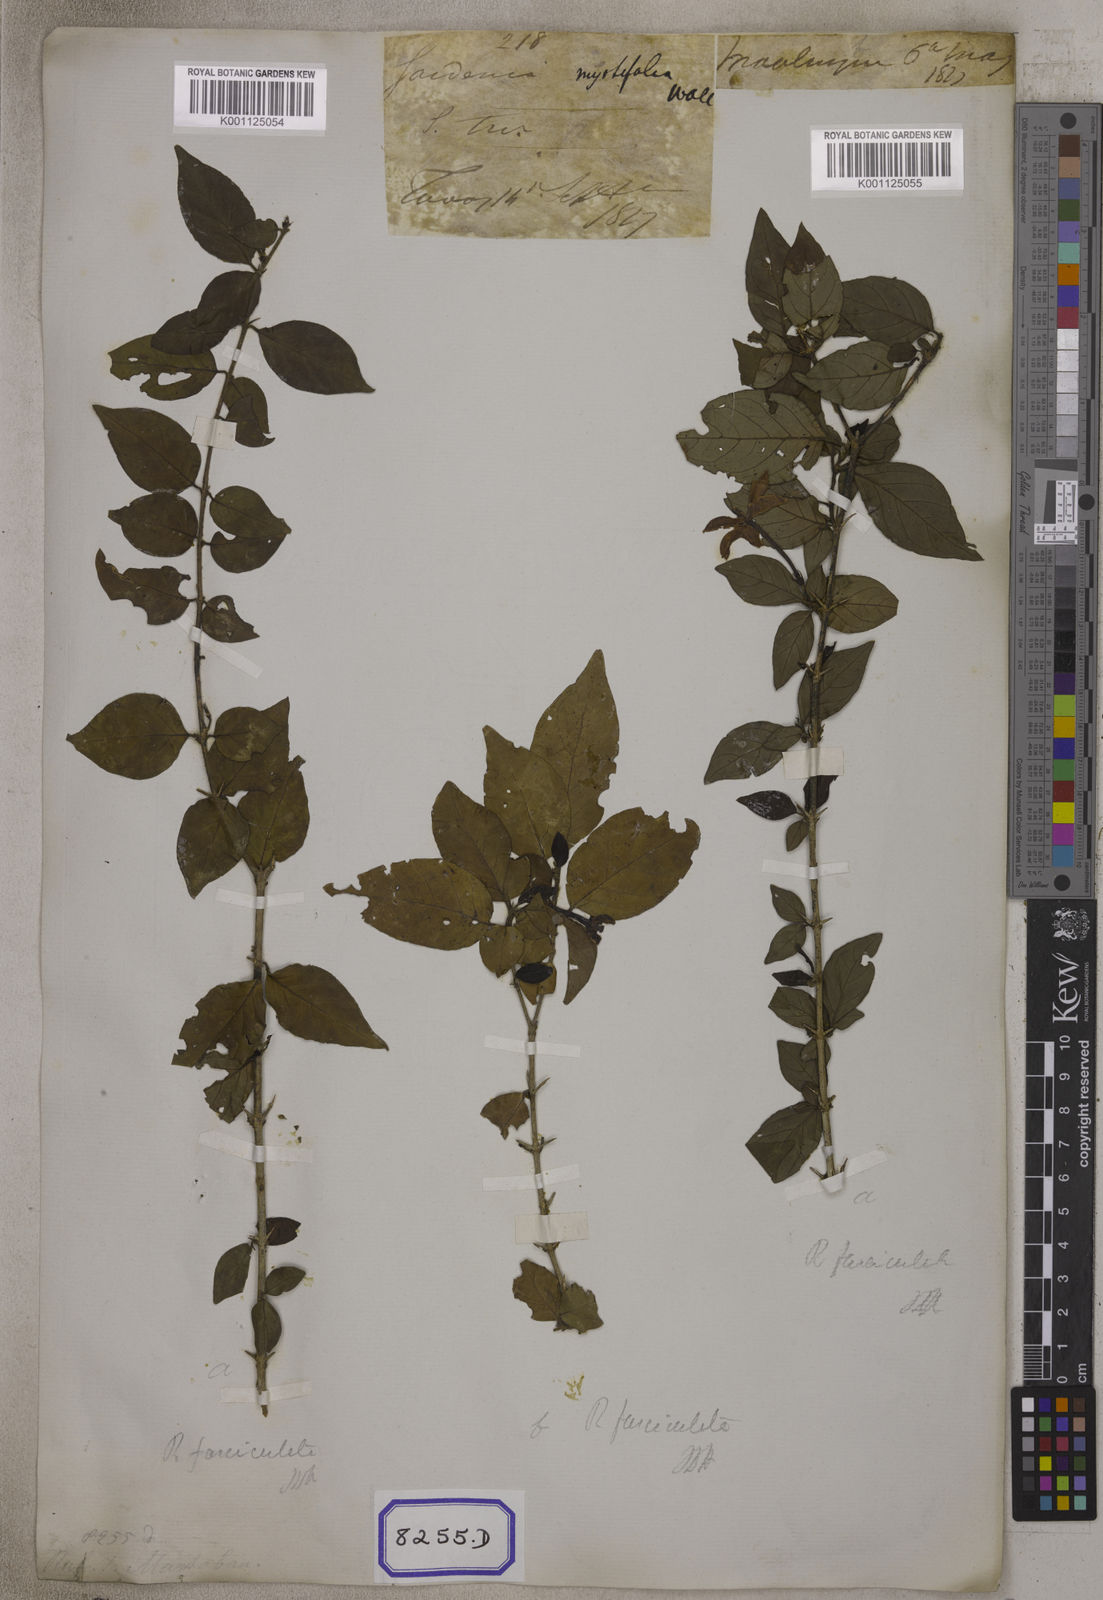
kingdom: Plantae
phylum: Tracheophyta
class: Magnoliopsida
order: Gentianales
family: Rubiaceae
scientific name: Rubiaceae
